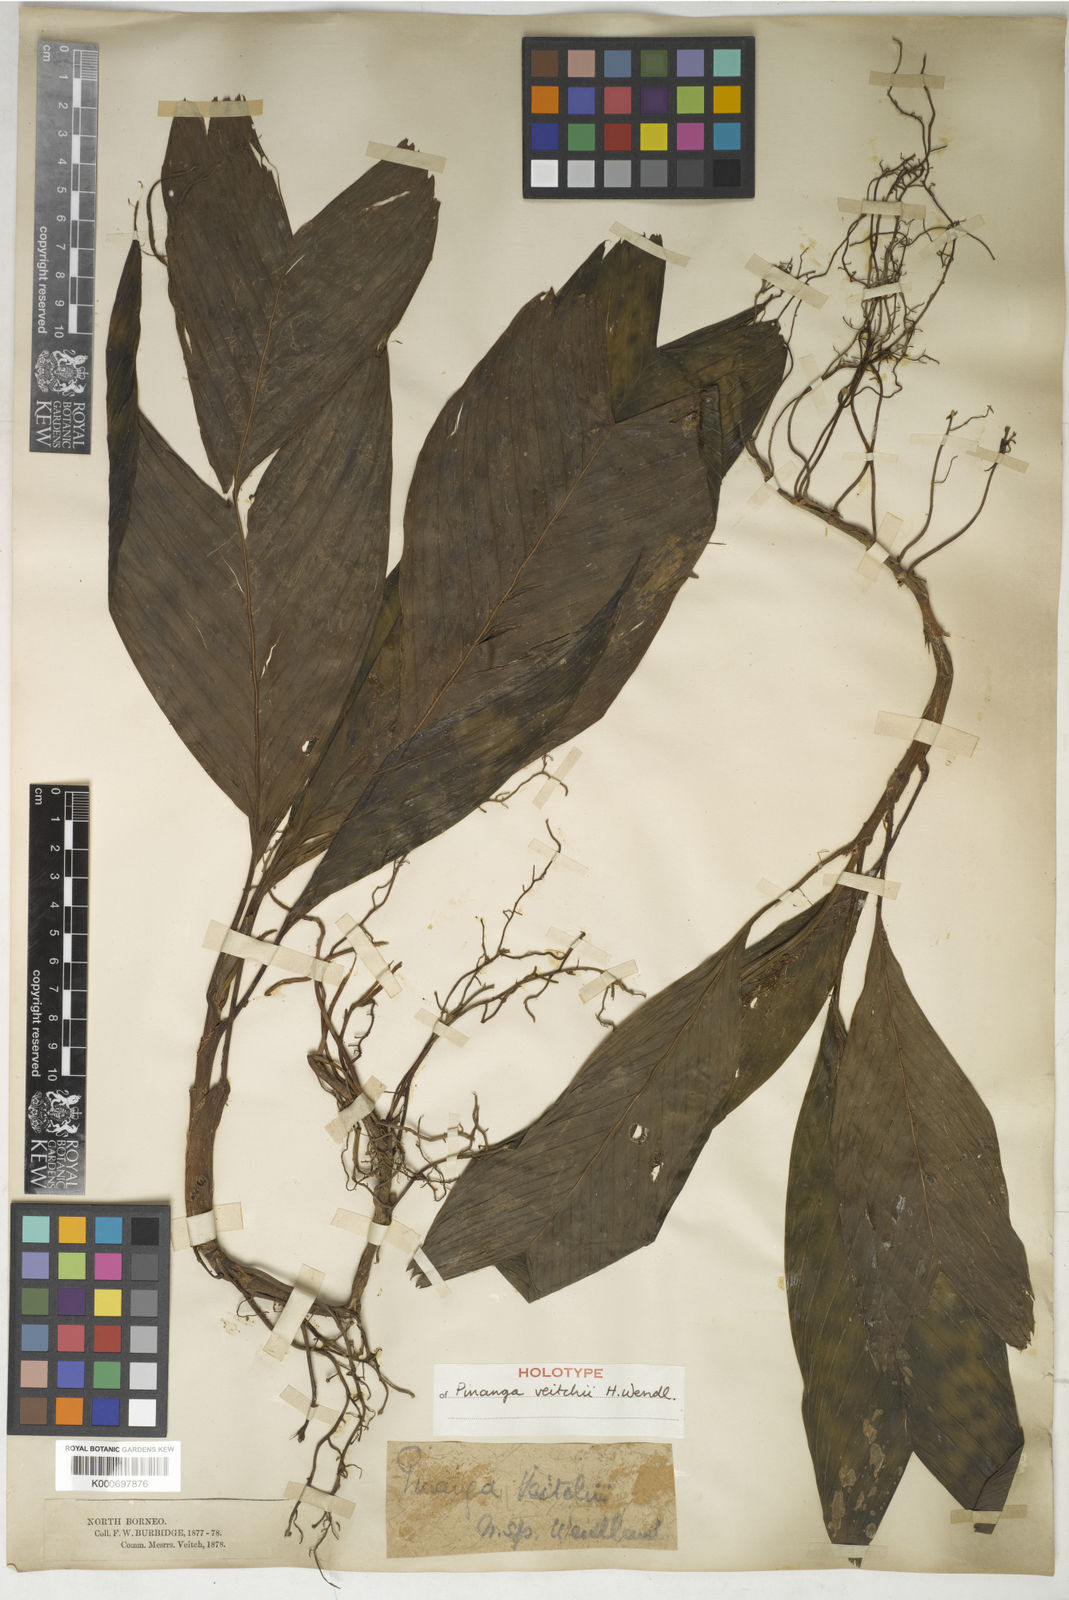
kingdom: Plantae
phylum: Tracheophyta
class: Liliopsida
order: Arecales
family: Arecaceae
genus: Pinanga
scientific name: Pinanga veitchii
